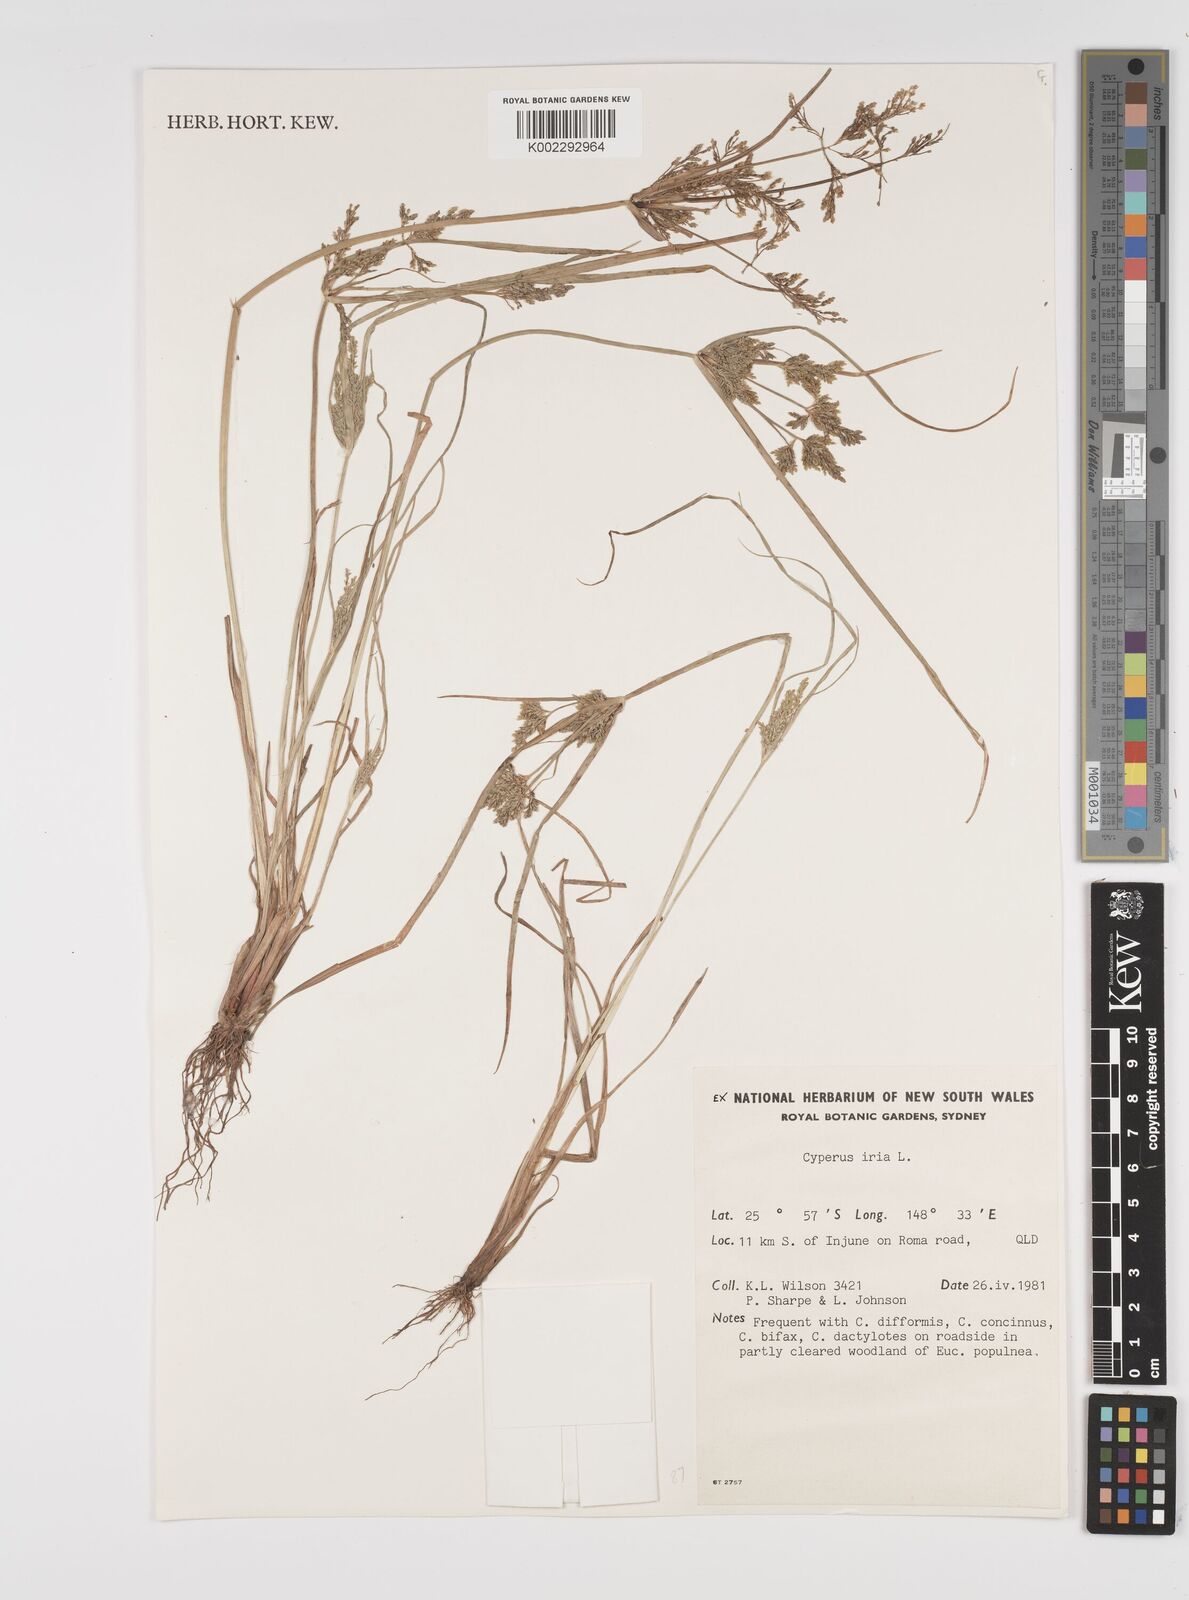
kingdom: Plantae
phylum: Tracheophyta
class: Liliopsida
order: Poales
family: Cyperaceae
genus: Cyperus
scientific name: Cyperus iria
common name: Ricefield flatsedge
